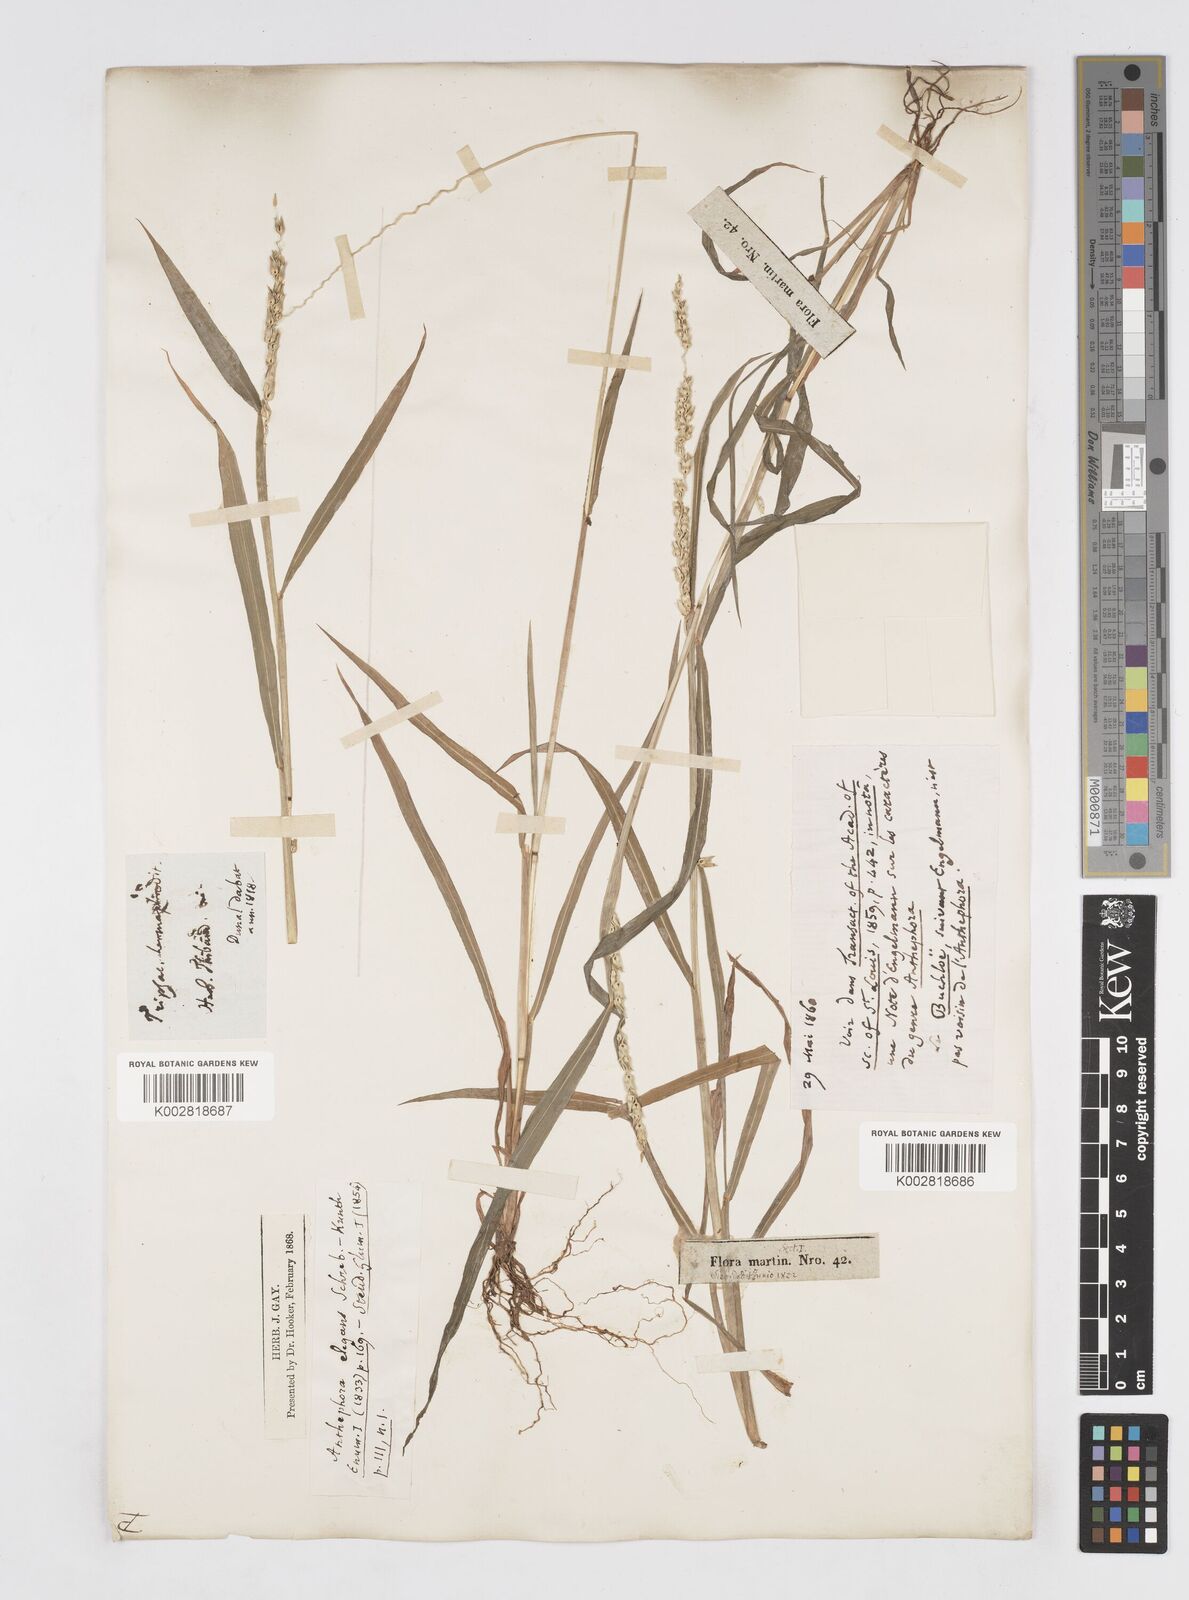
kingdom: Plantae
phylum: Tracheophyta
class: Liliopsida
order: Poales
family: Poaceae
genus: Anthephora
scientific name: Anthephora hermaphrodita
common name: Oldfield grass
